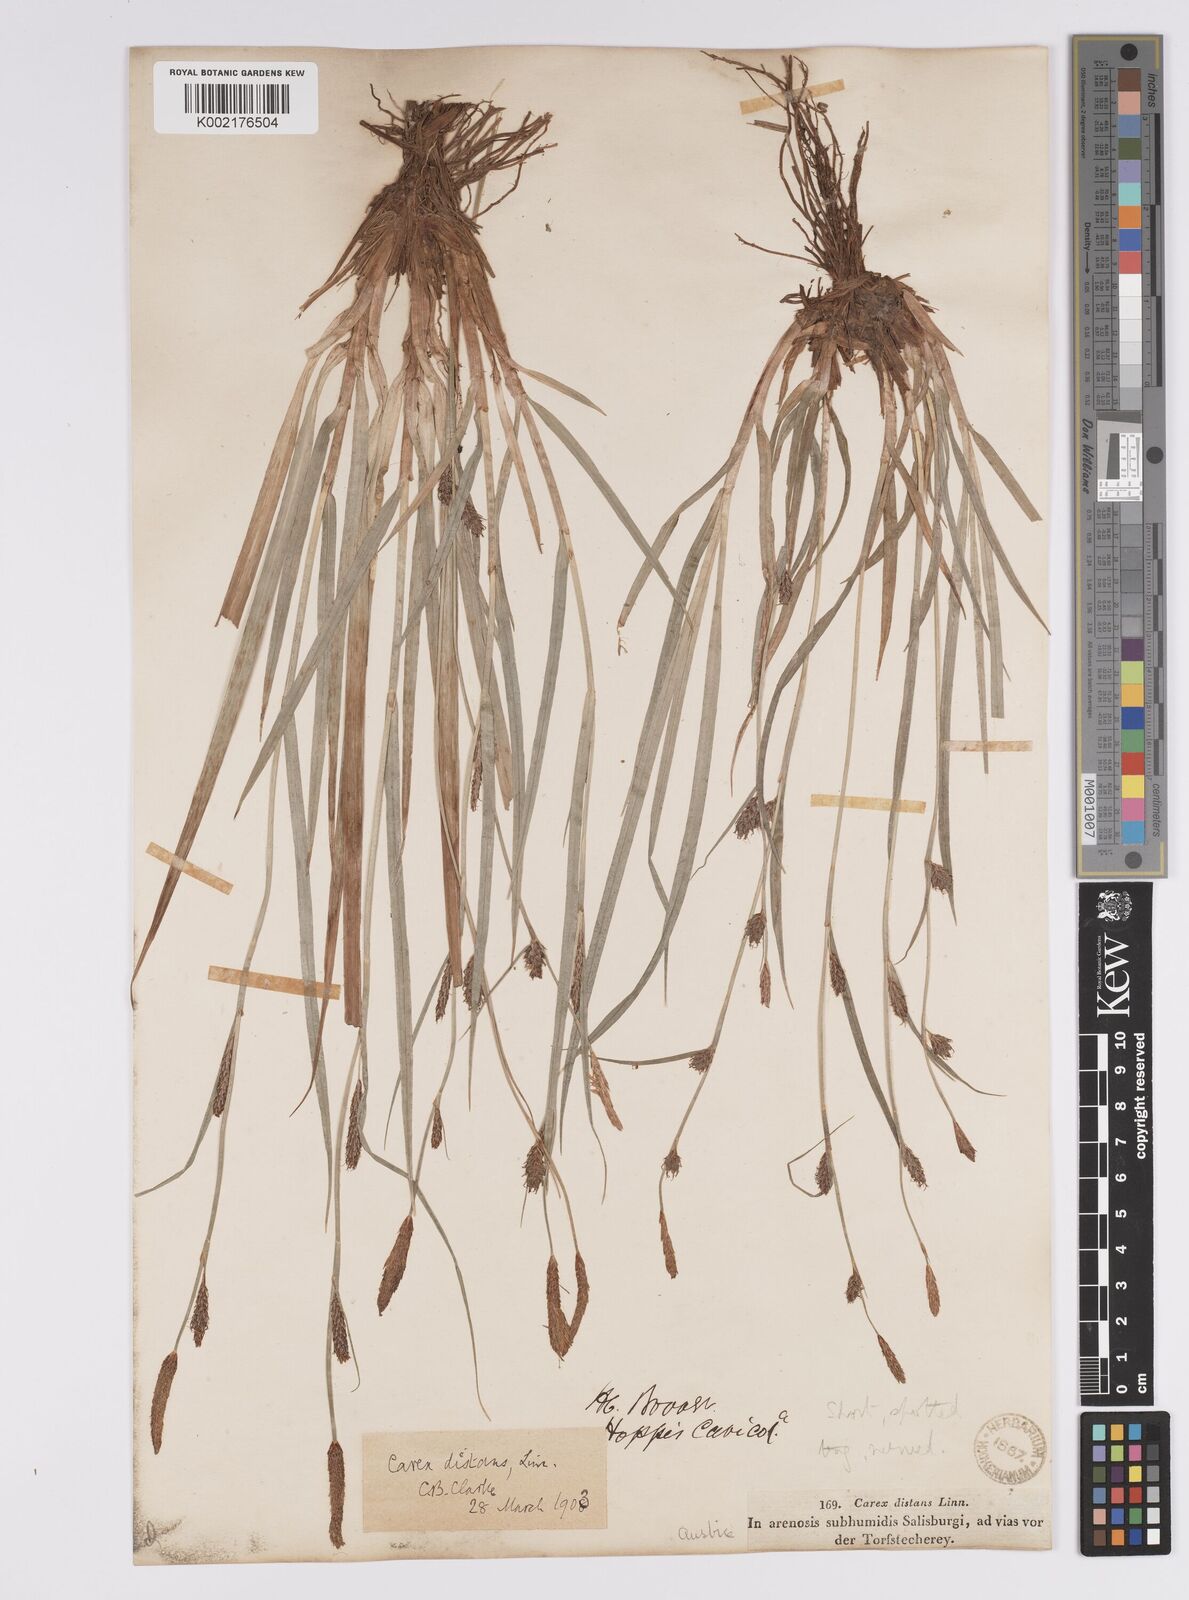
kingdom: Plantae
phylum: Tracheophyta
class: Liliopsida
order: Poales
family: Cyperaceae
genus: Carex
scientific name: Carex distans
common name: Distant sedge
